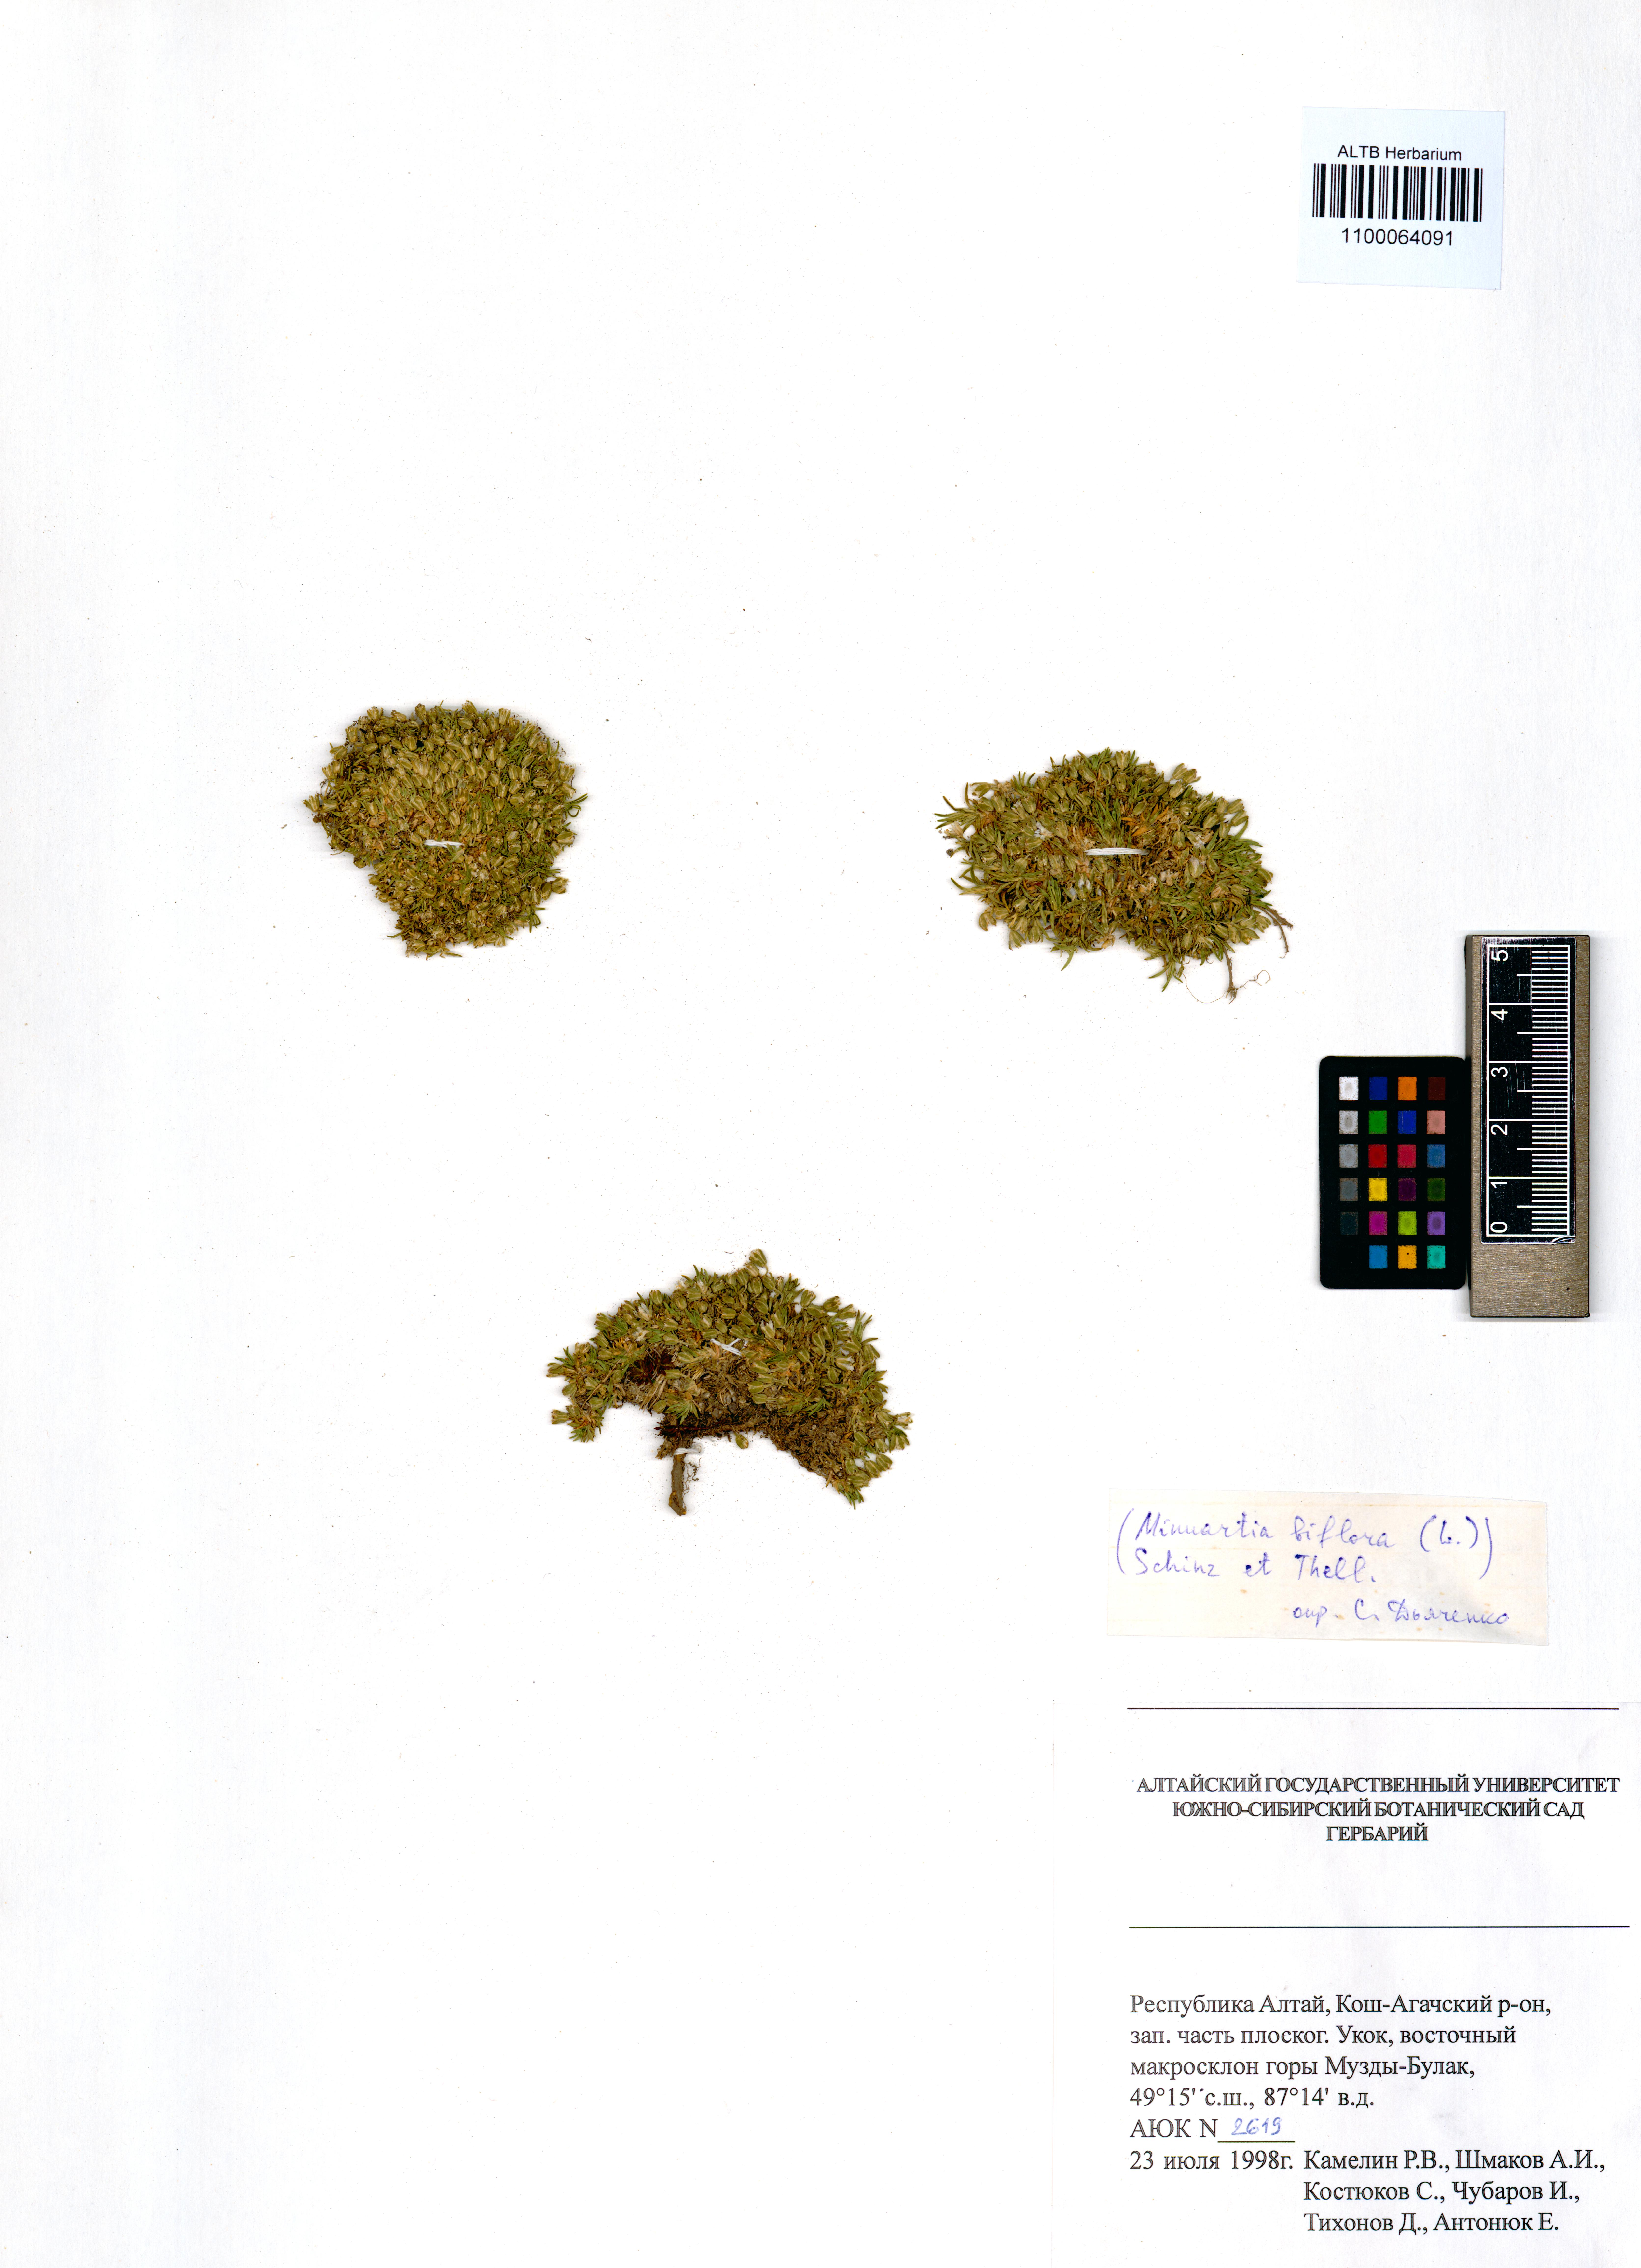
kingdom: Plantae
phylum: Tracheophyta
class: Magnoliopsida
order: Caryophyllales
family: Caryophyllaceae
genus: Cherleria
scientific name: Cherleria biflora
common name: Mountain sandwort
